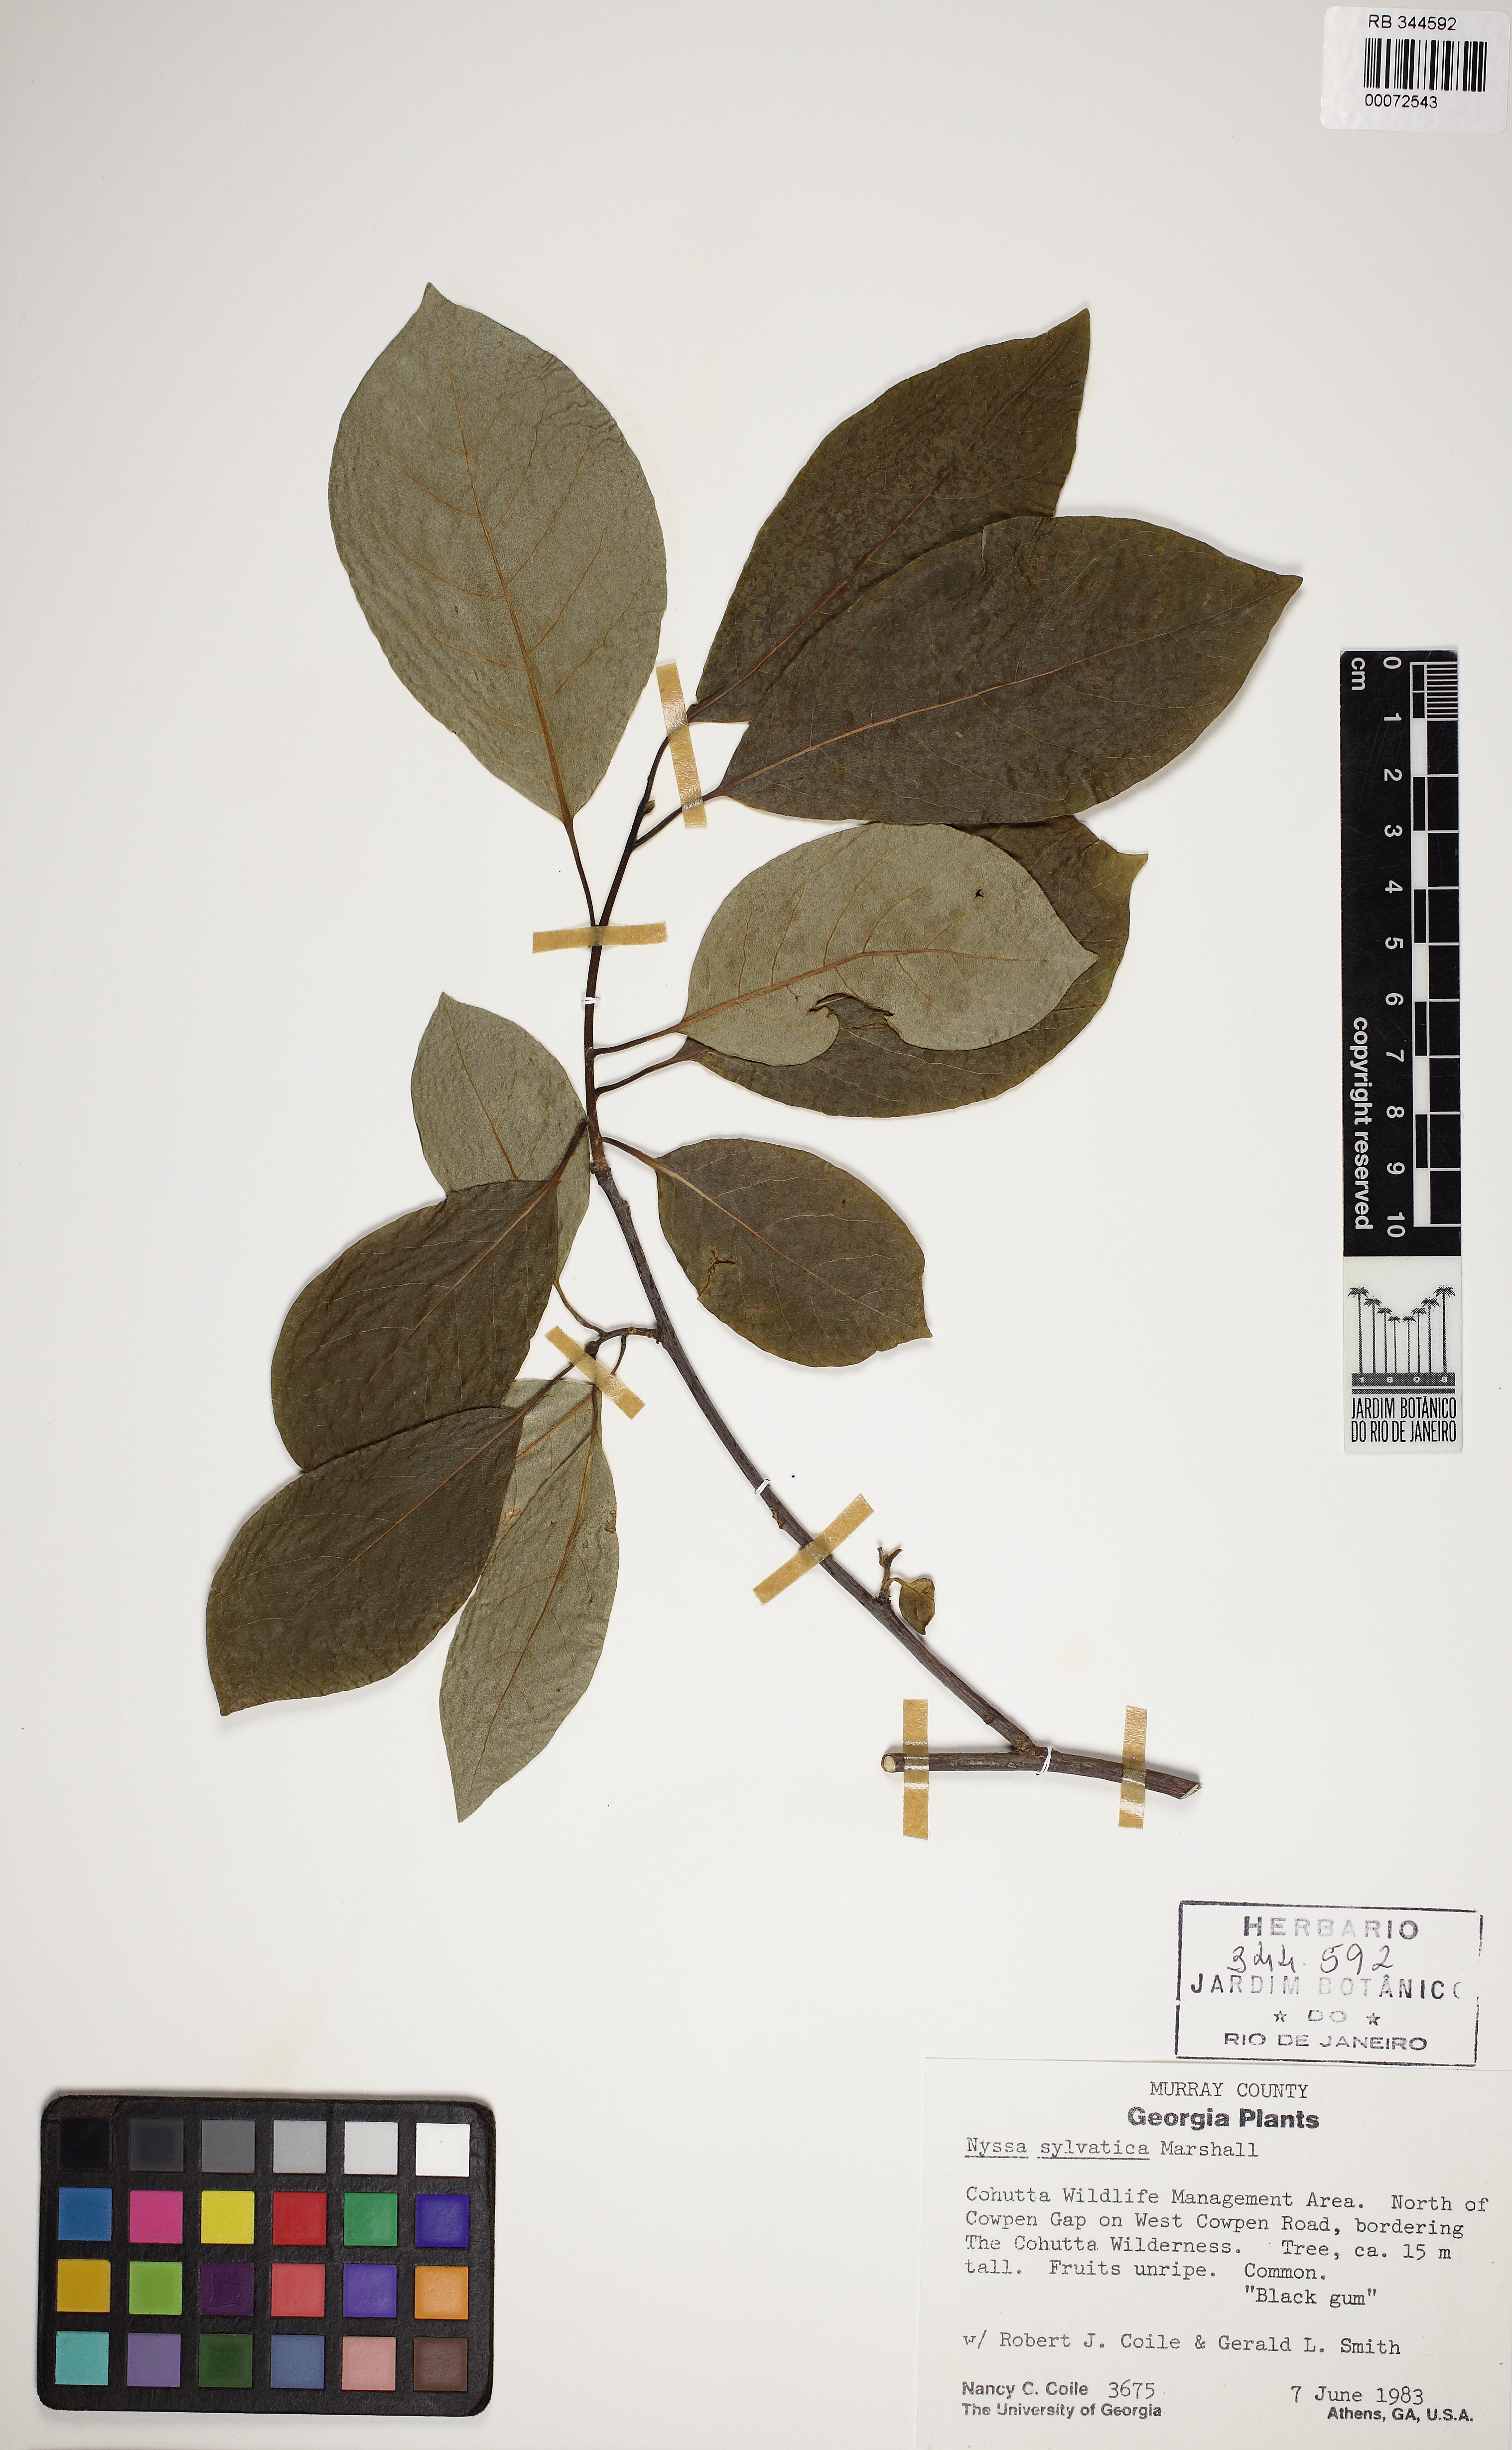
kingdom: Plantae
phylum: Tracheophyta
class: Magnoliopsida
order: Cornales
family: Nyssaceae
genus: Nyssa
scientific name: Nyssa sylvatica
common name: Black tupelo
